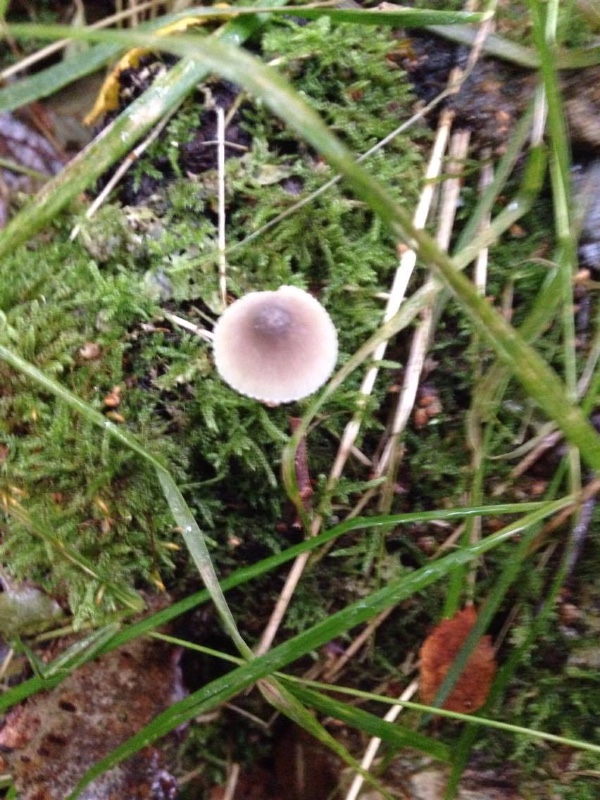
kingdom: Fungi
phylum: Basidiomycota
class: Agaricomycetes
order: Agaricales
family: Mycenaceae
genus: Mycena
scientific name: Mycena polygramma
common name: mangestribet huesvamp
